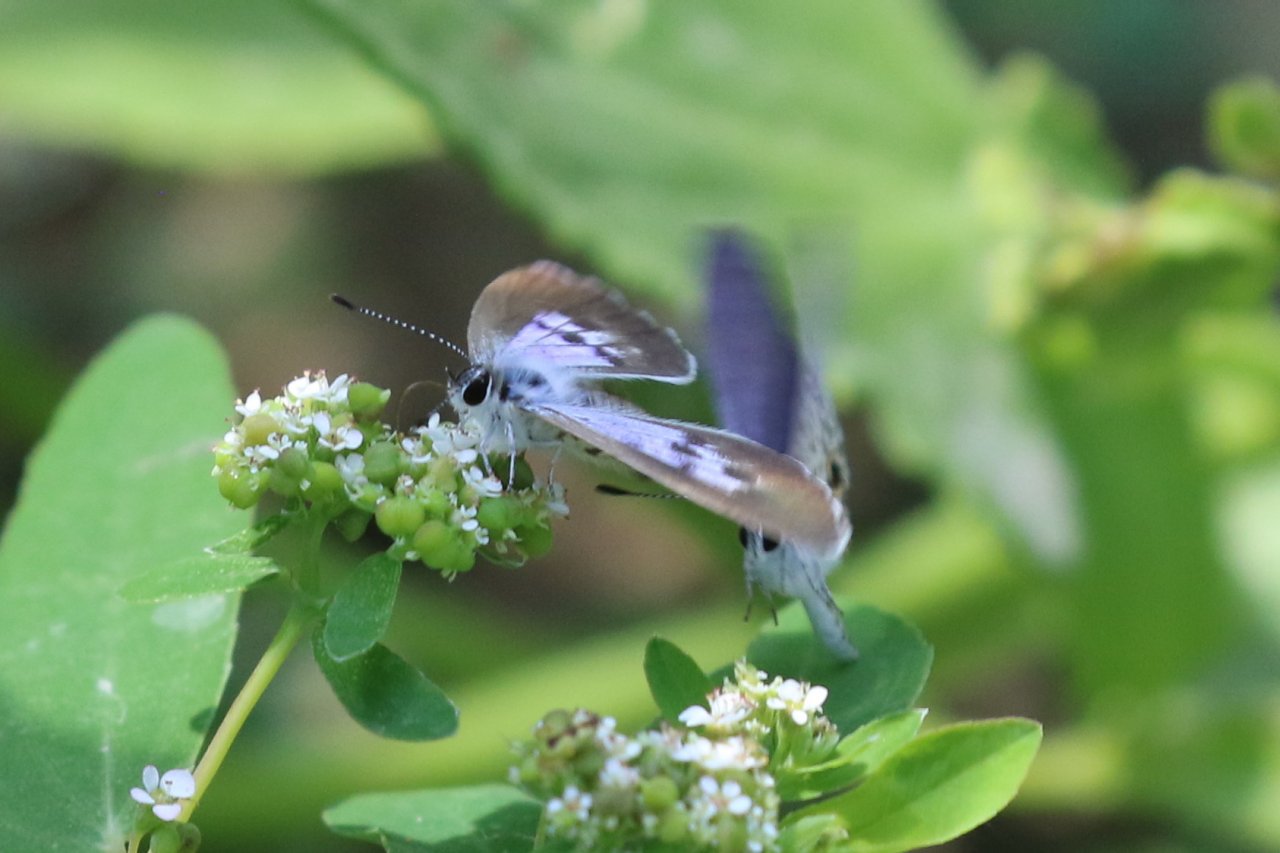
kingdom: Animalia
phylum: Arthropoda
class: Insecta
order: Lepidoptera
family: Lycaenidae
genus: Leptotes
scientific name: Leptotes cassius
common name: Cassius Blue
